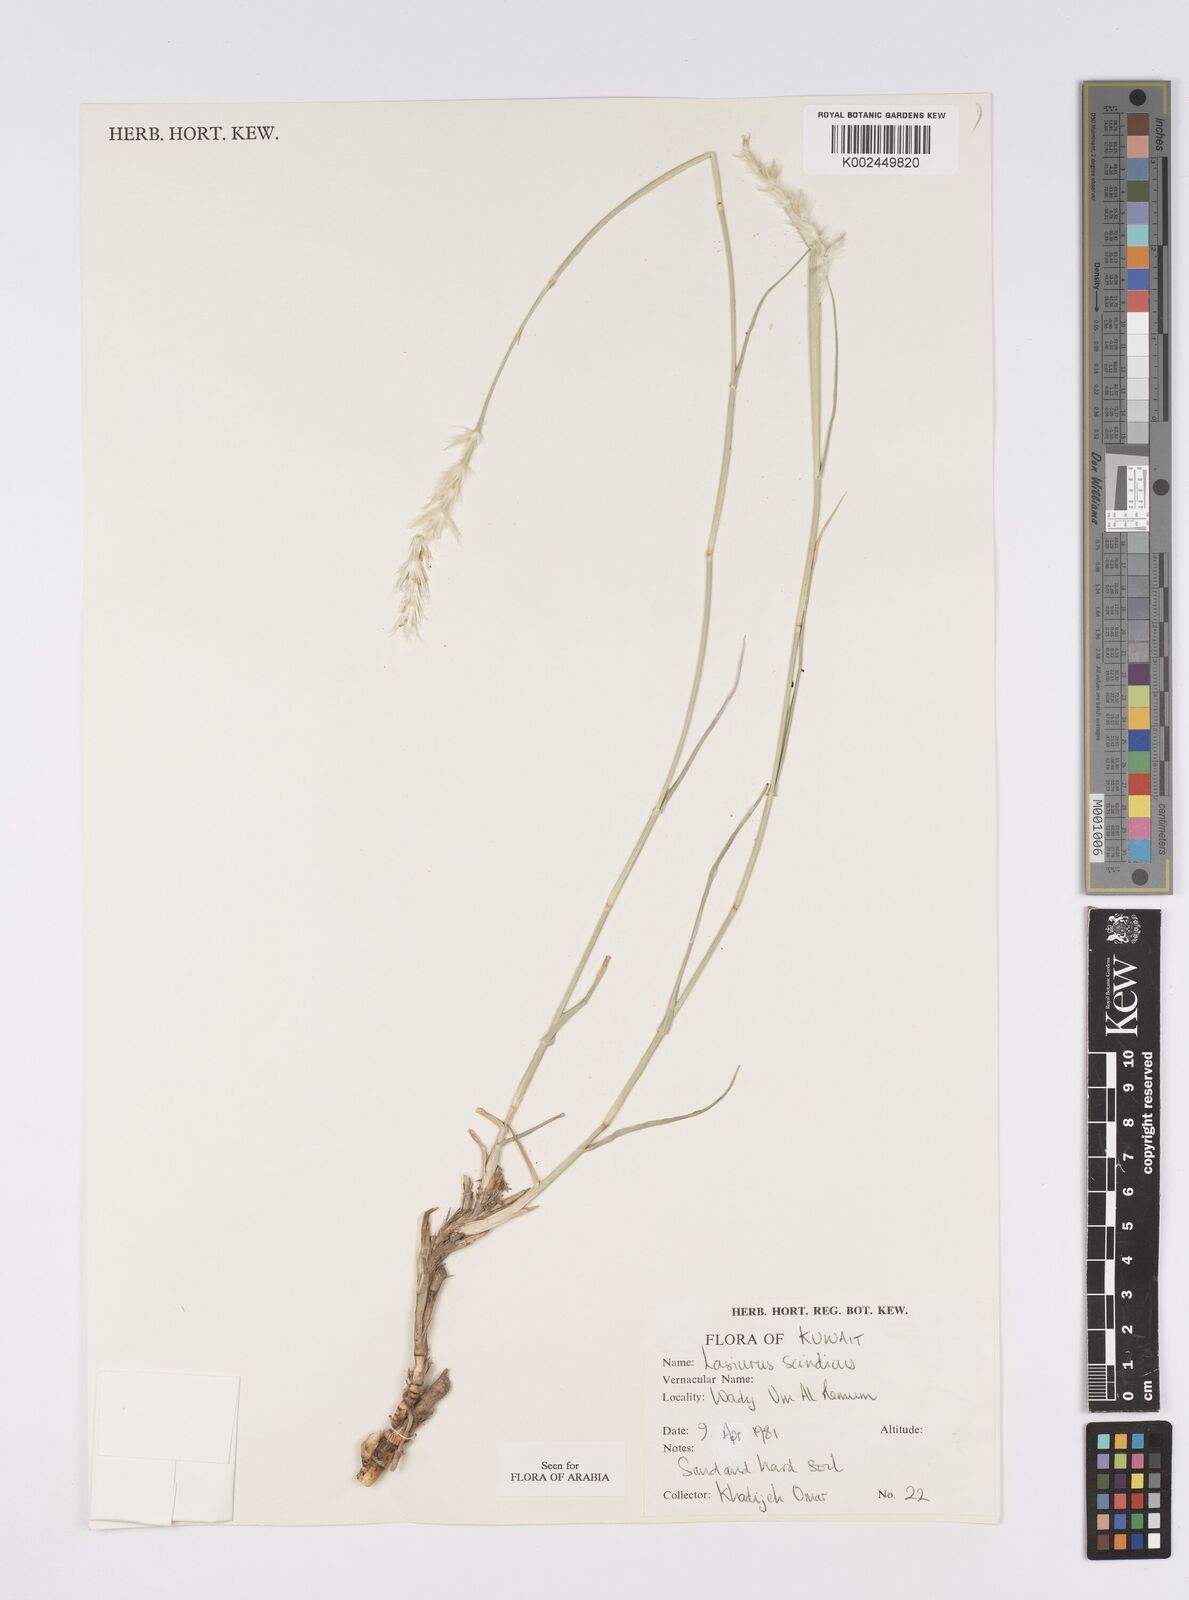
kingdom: Plantae
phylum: Tracheophyta
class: Liliopsida
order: Poales
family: Poaceae
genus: Lasiurus
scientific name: Lasiurus scindicus
